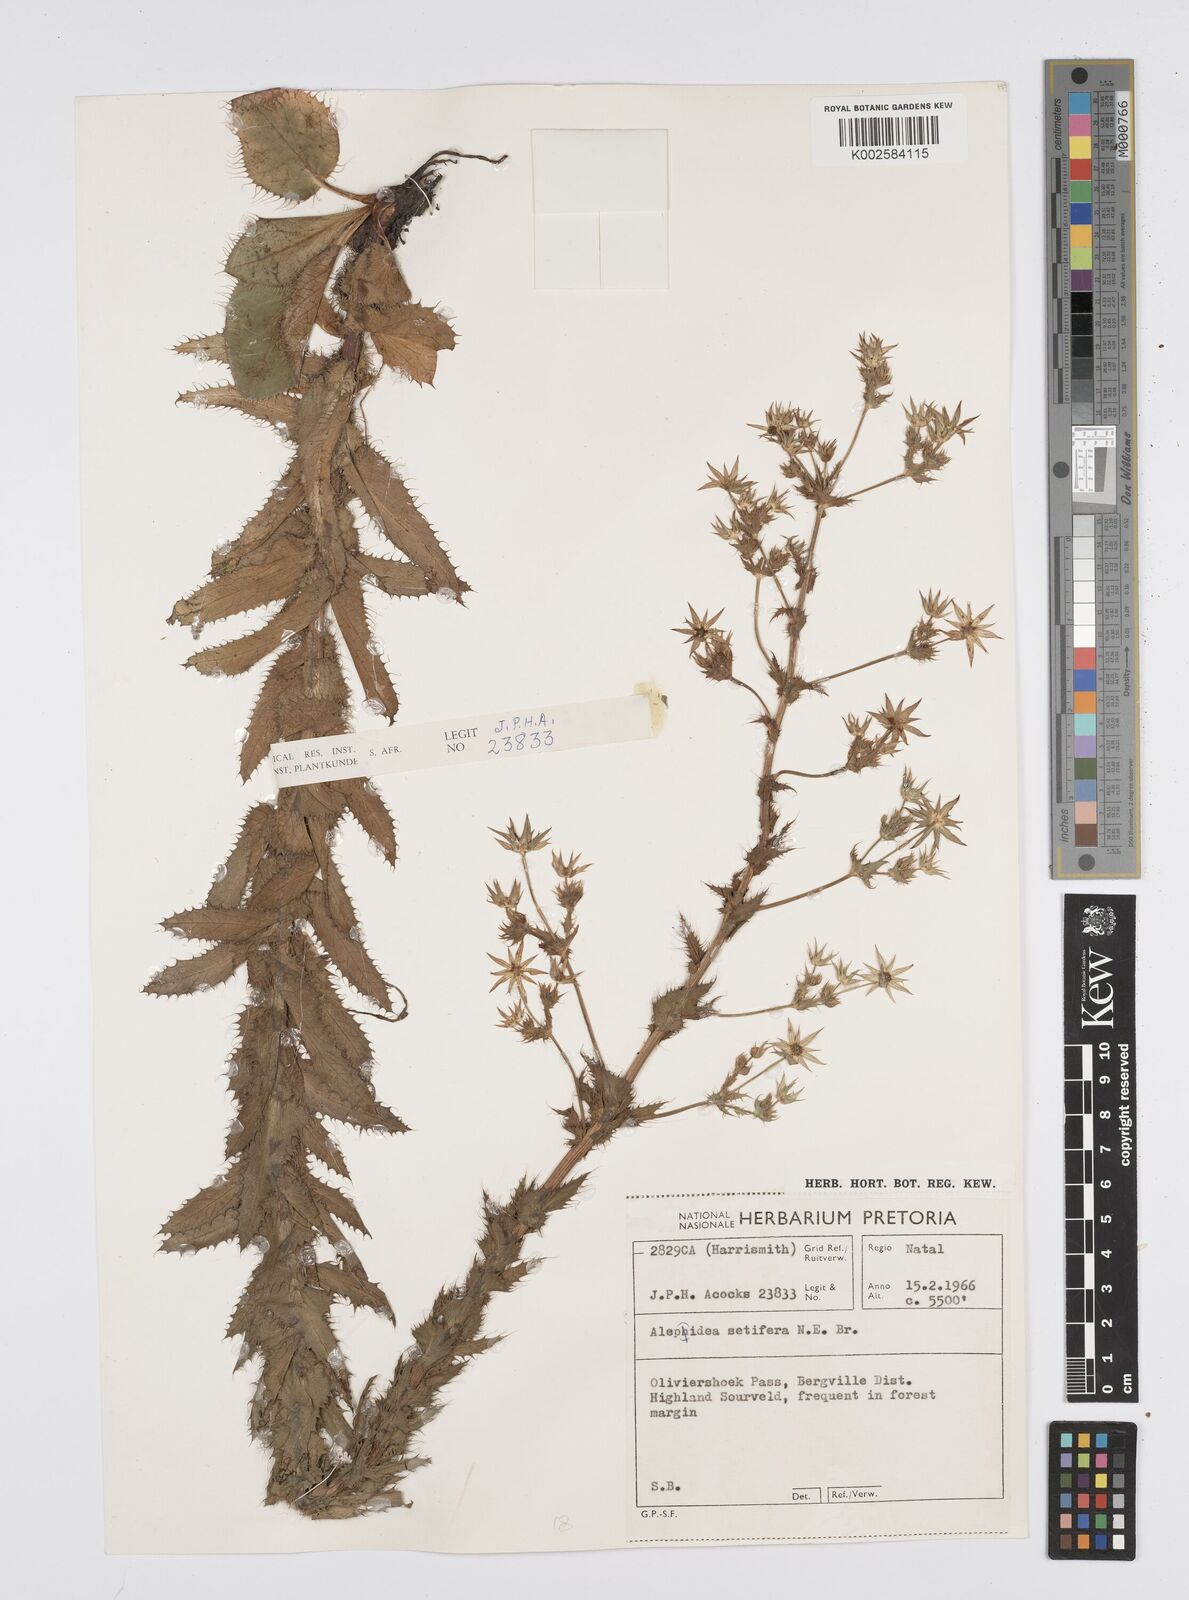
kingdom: Plantae
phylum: Tracheophyta
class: Magnoliopsida
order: Apiales
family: Apiaceae
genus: Alepidea
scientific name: Alepidea setifera
